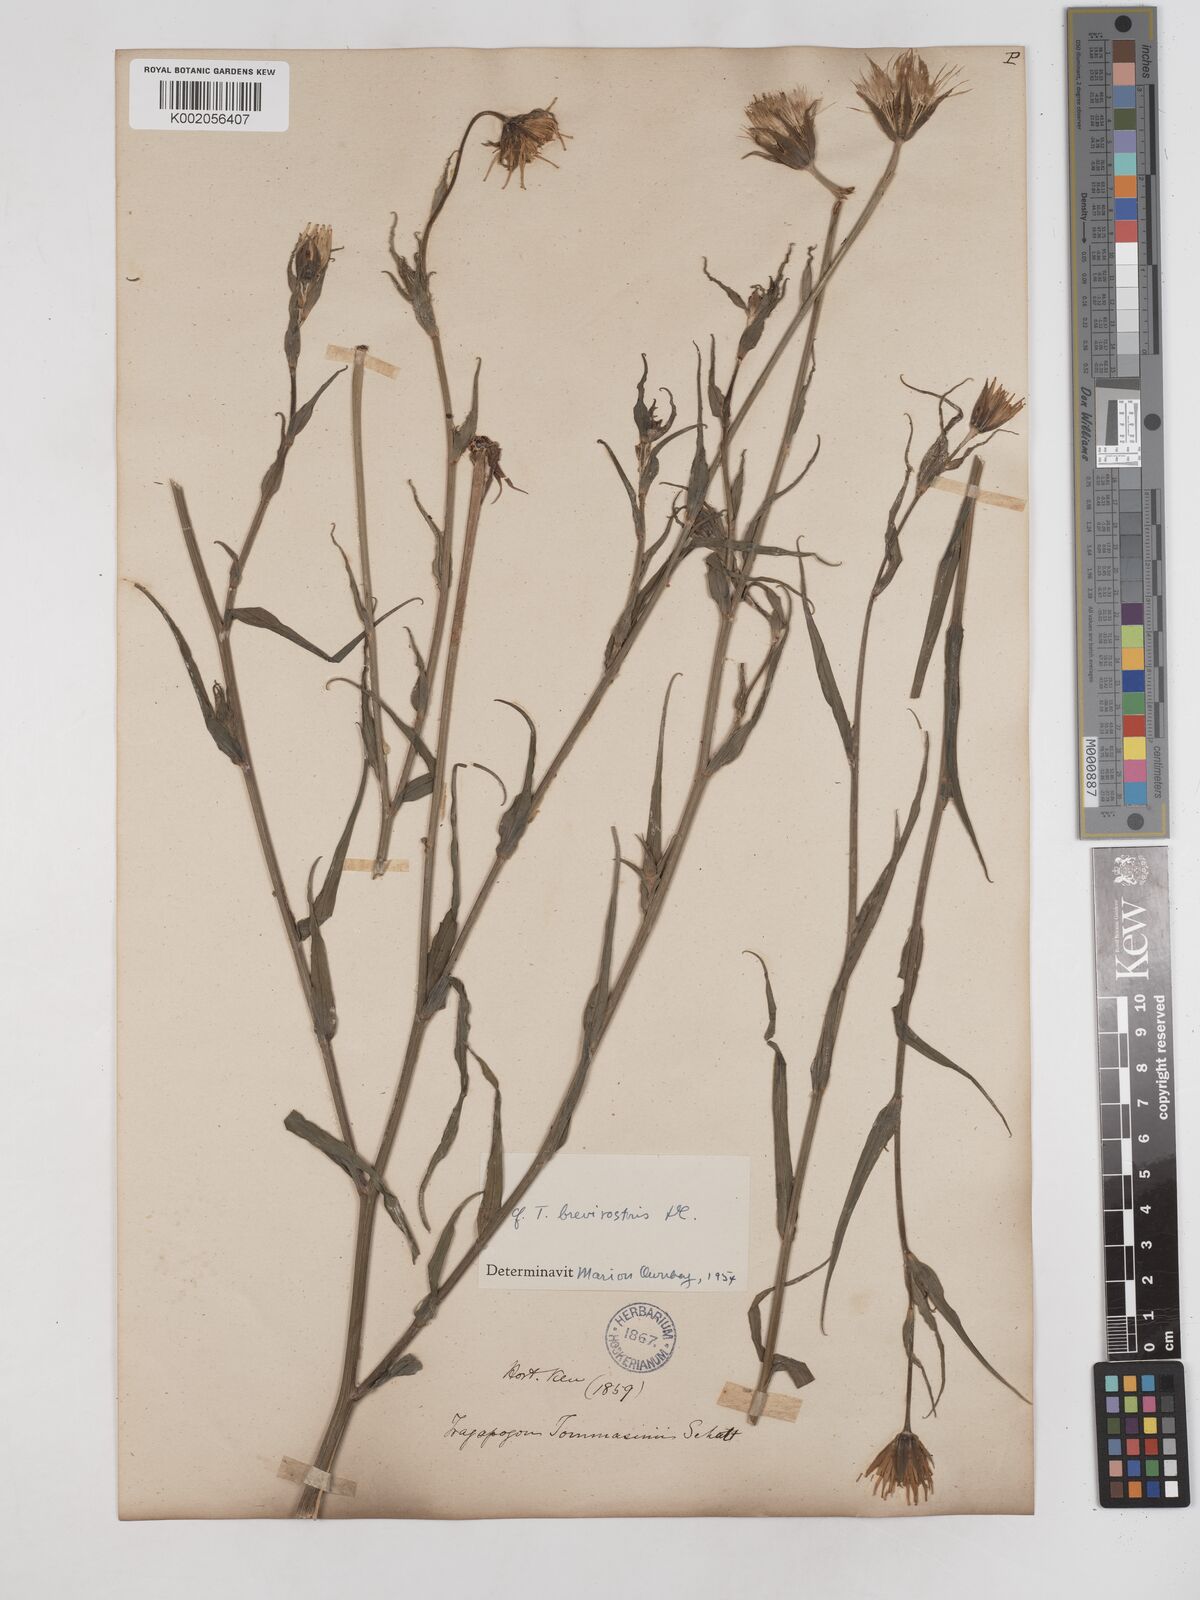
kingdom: Plantae
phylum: Tracheophyta
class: Magnoliopsida
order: Asterales
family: Asteraceae
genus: Tragopogon
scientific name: Tragopogon brevirostris
